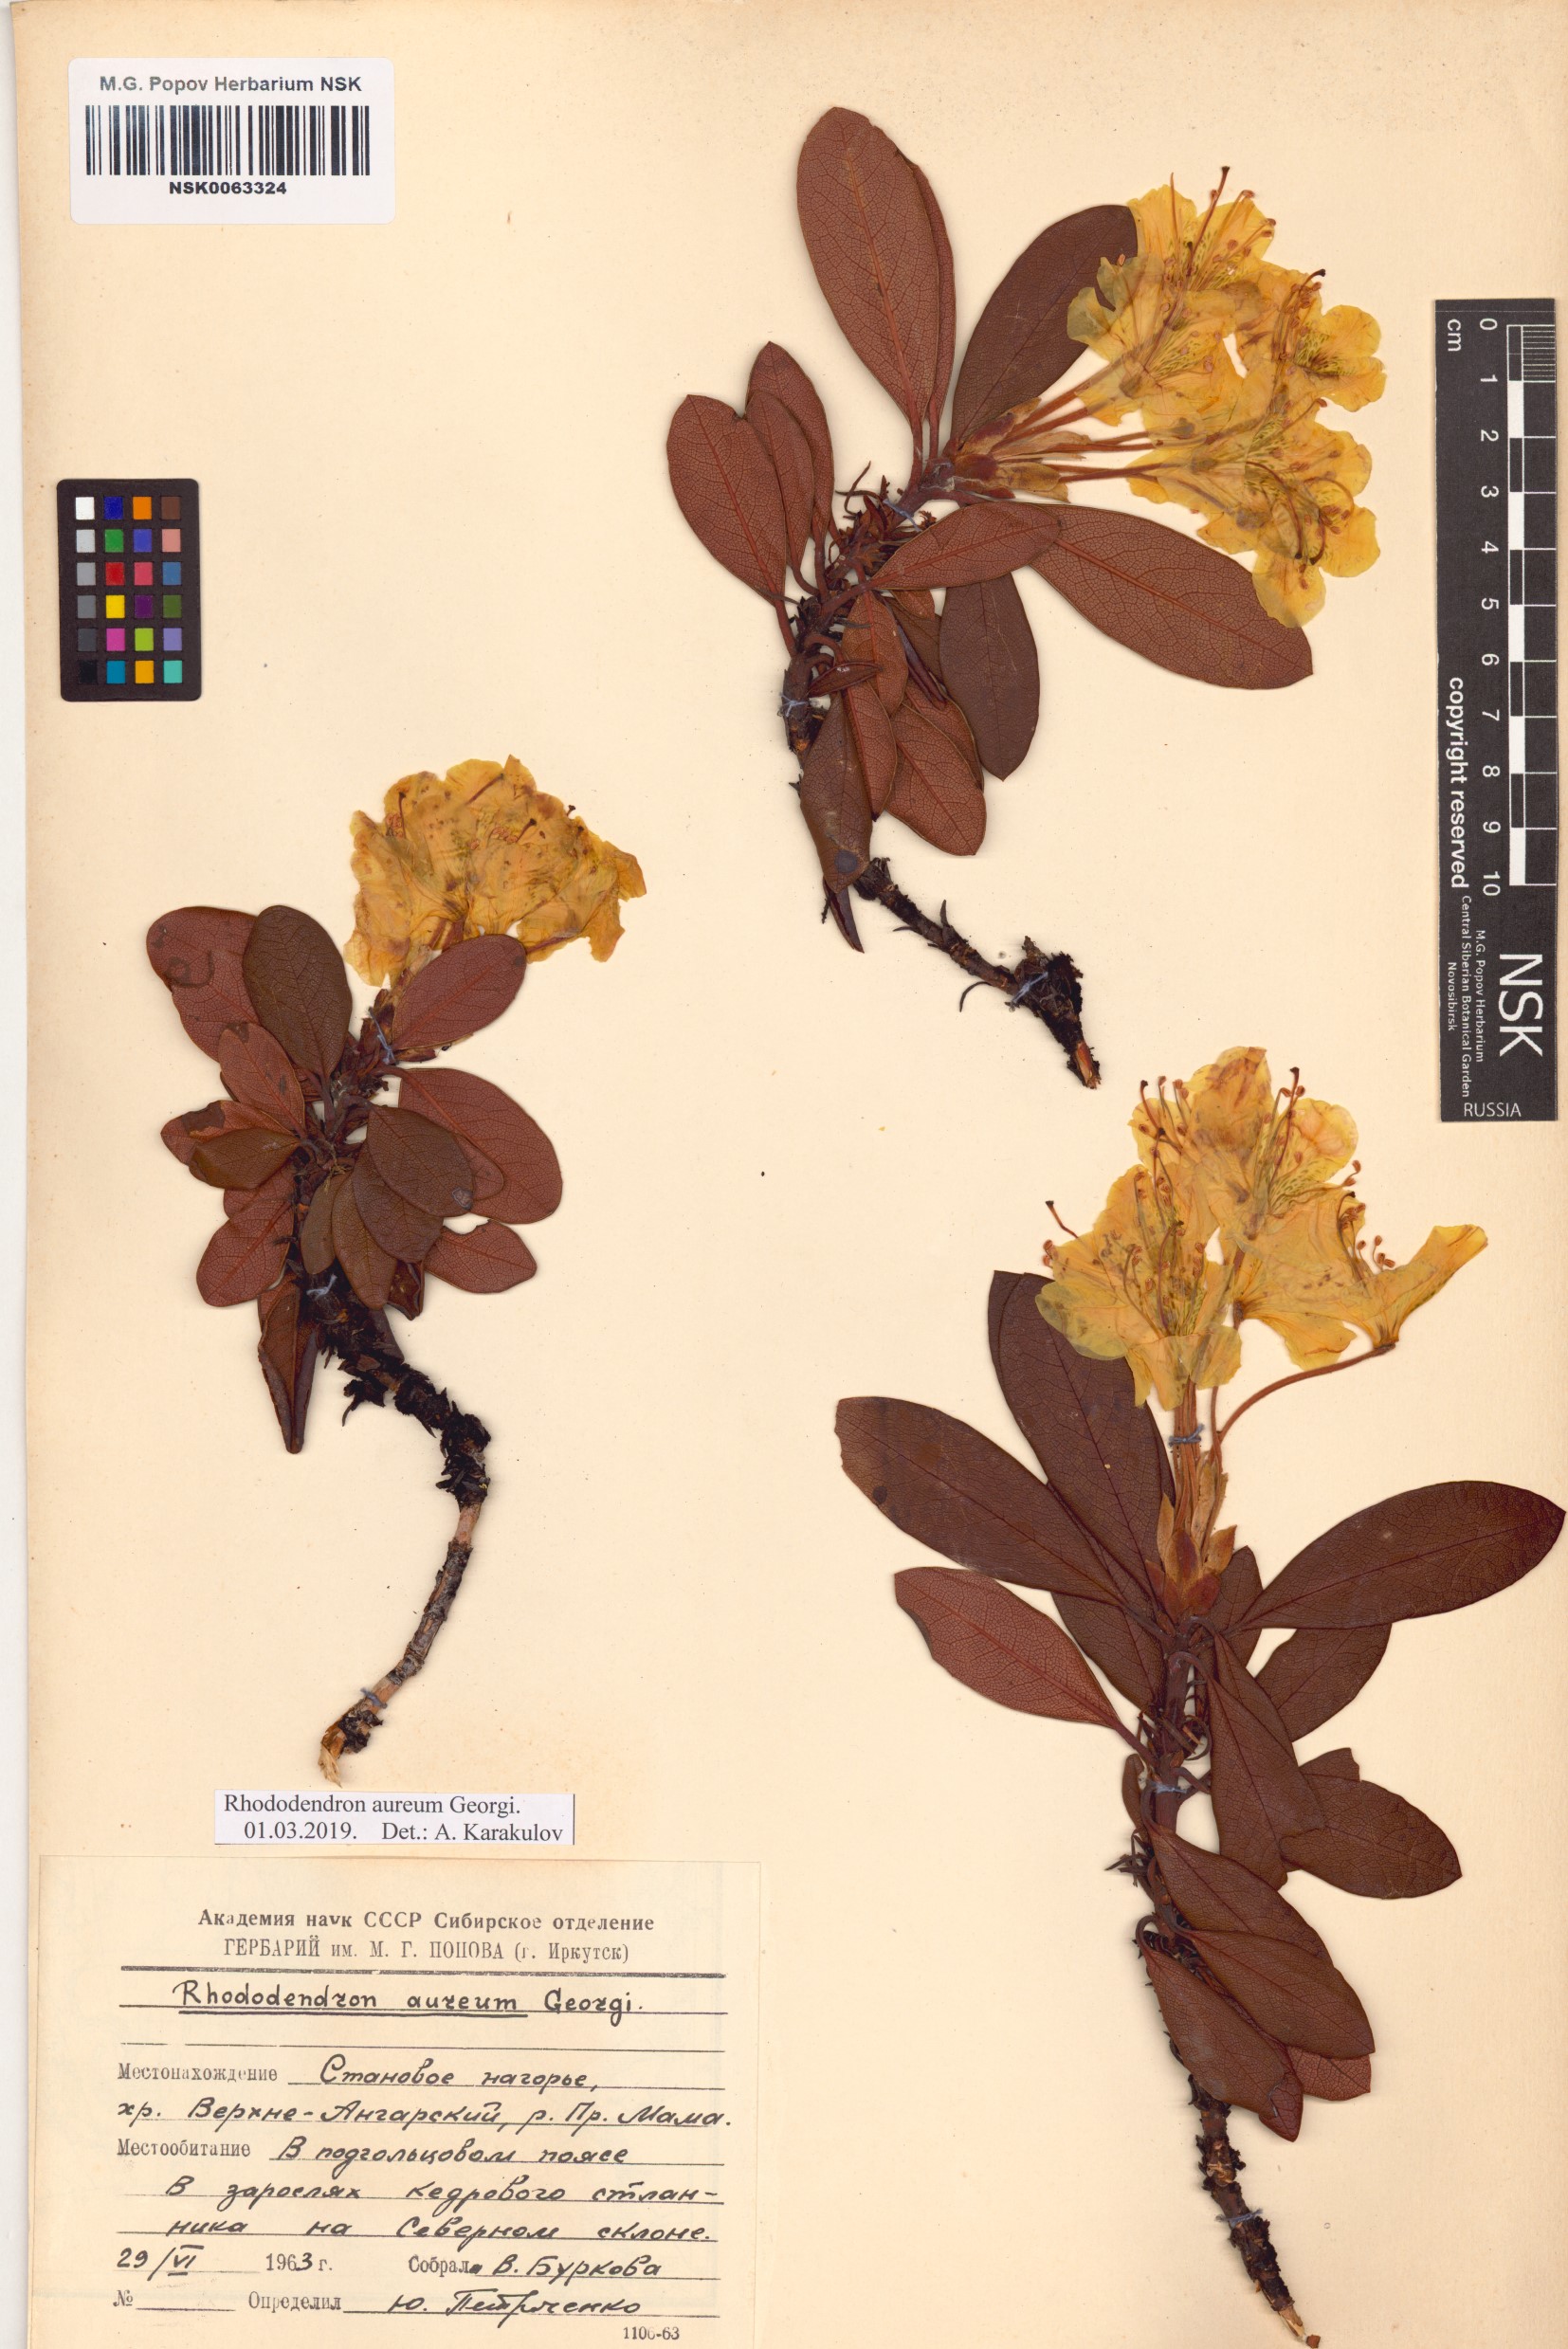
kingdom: Plantae
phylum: Tracheophyta
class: Magnoliopsida
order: Ericales
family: Ericaceae
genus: Rhododendron
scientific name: Rhododendron aureum
